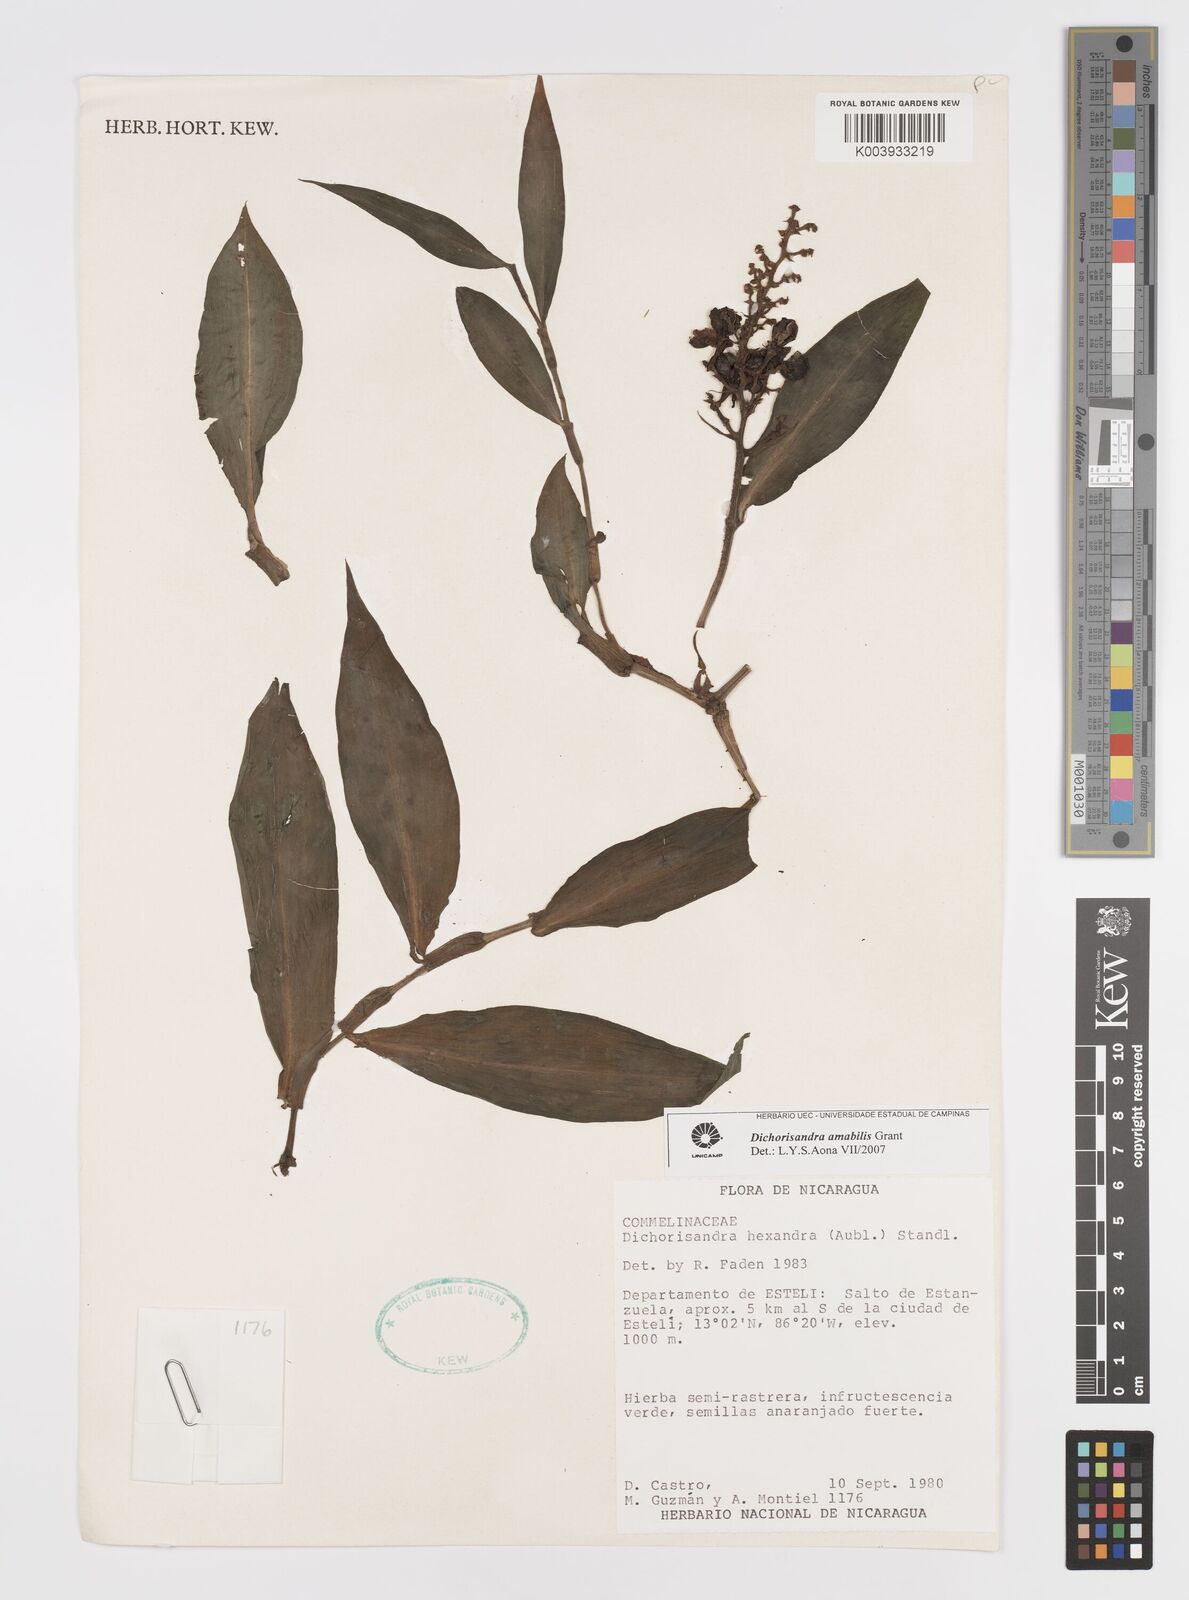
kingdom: Plantae
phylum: Tracheophyta
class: Liliopsida
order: Commelinales
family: Commelinaceae
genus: Dichorisandra
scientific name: Dichorisandra amabilis
